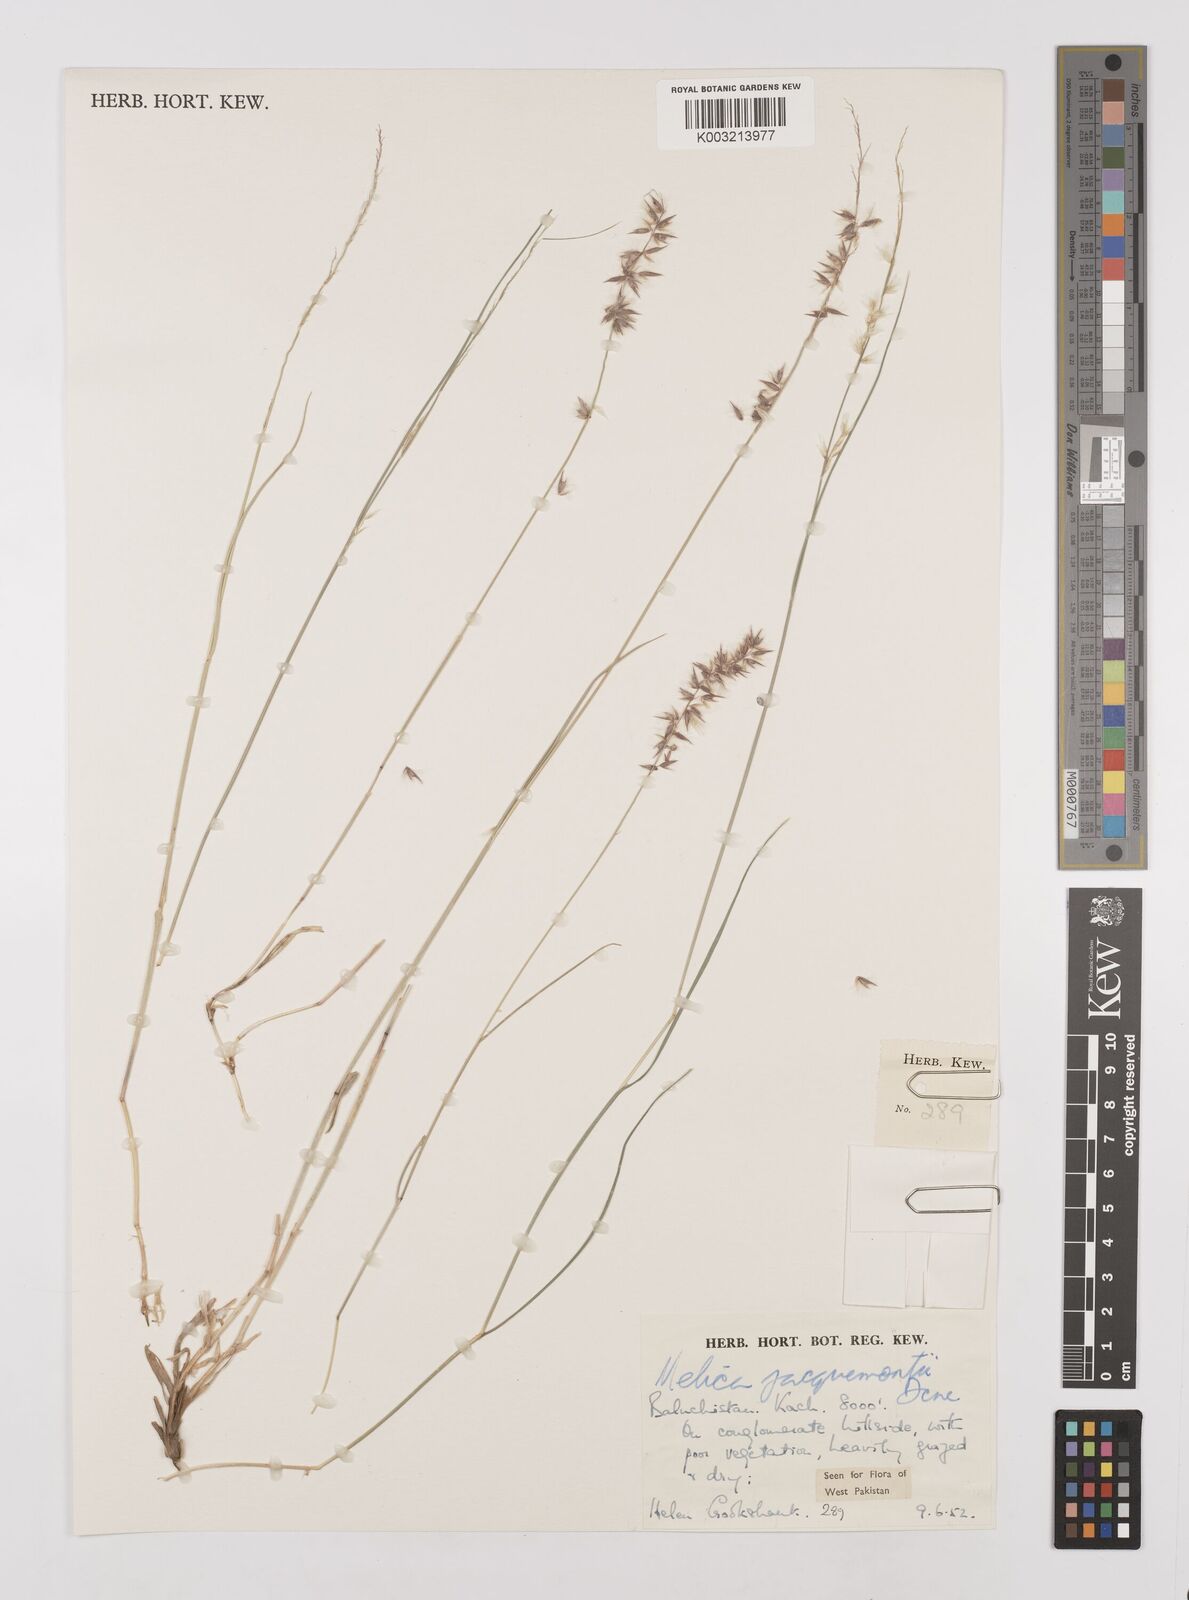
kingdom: Plantae
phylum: Tracheophyta
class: Liliopsida
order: Poales
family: Poaceae
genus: Melica
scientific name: Melica persica
